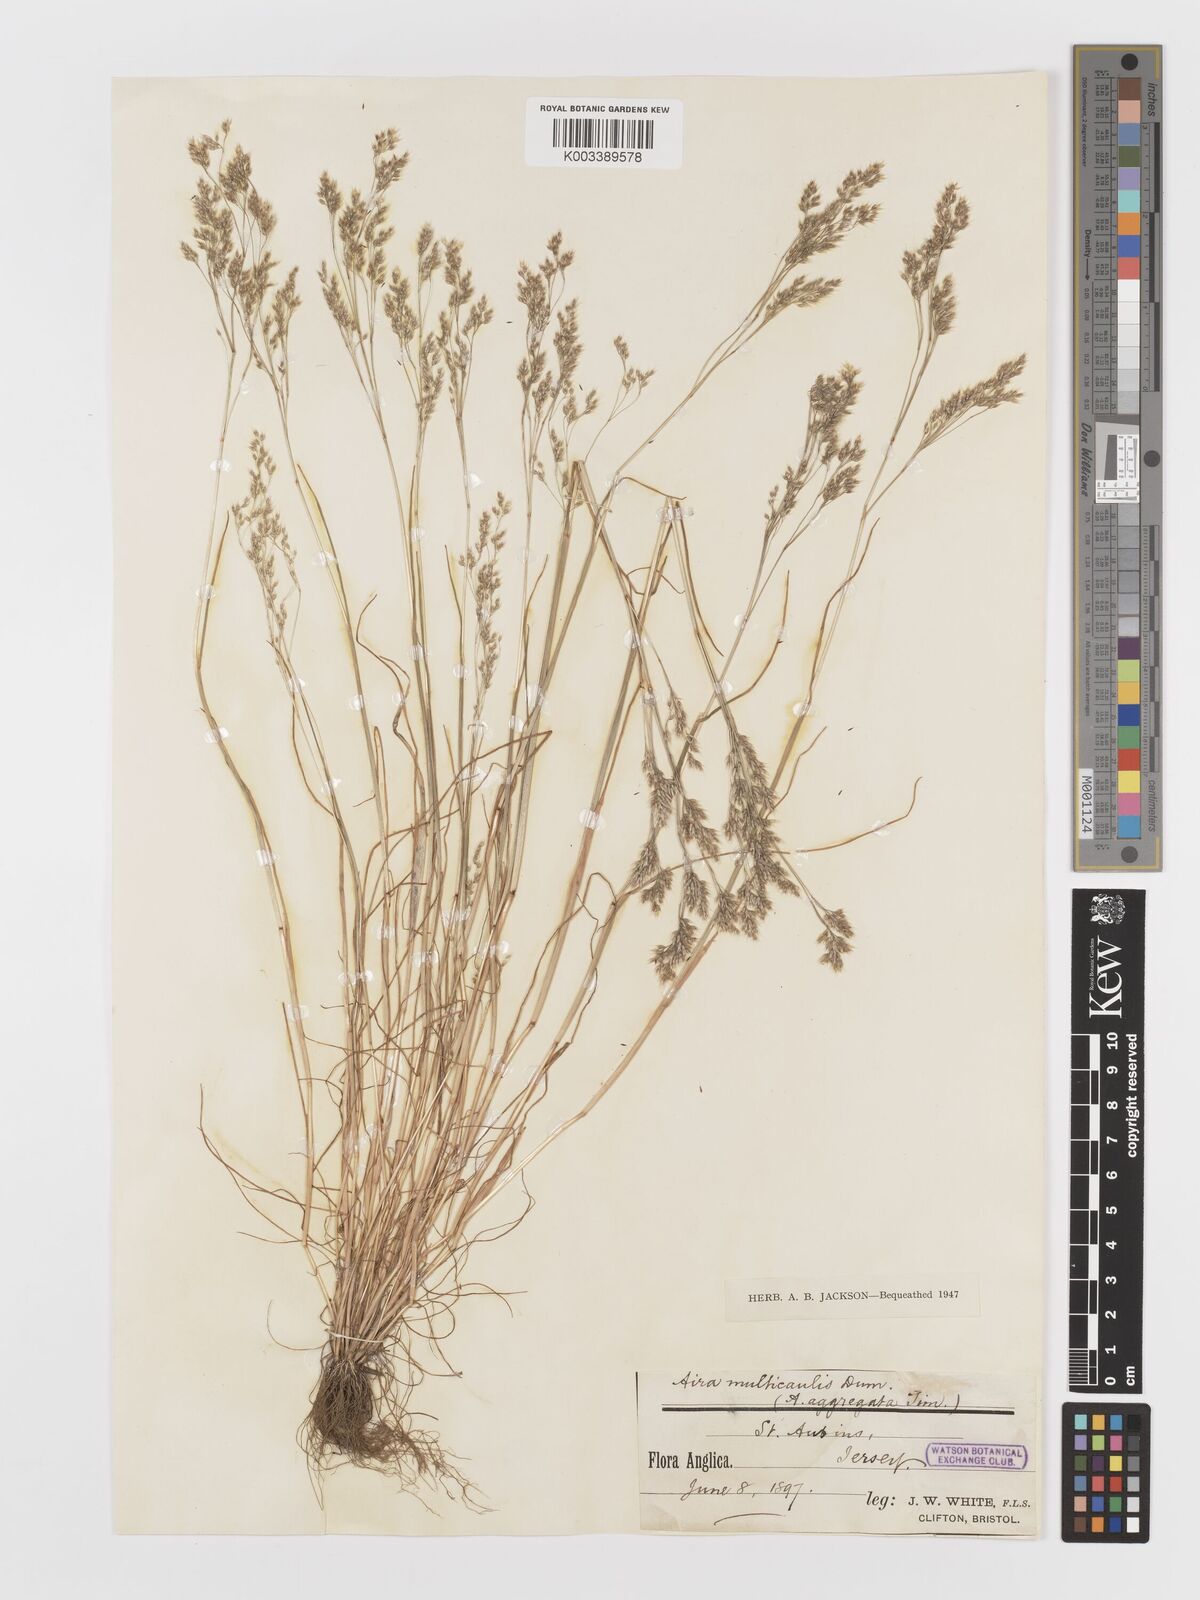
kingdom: Plantae
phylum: Tracheophyta
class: Liliopsida
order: Poales
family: Poaceae
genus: Aira
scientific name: Aira caryophyllea
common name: Silver hairgrass
